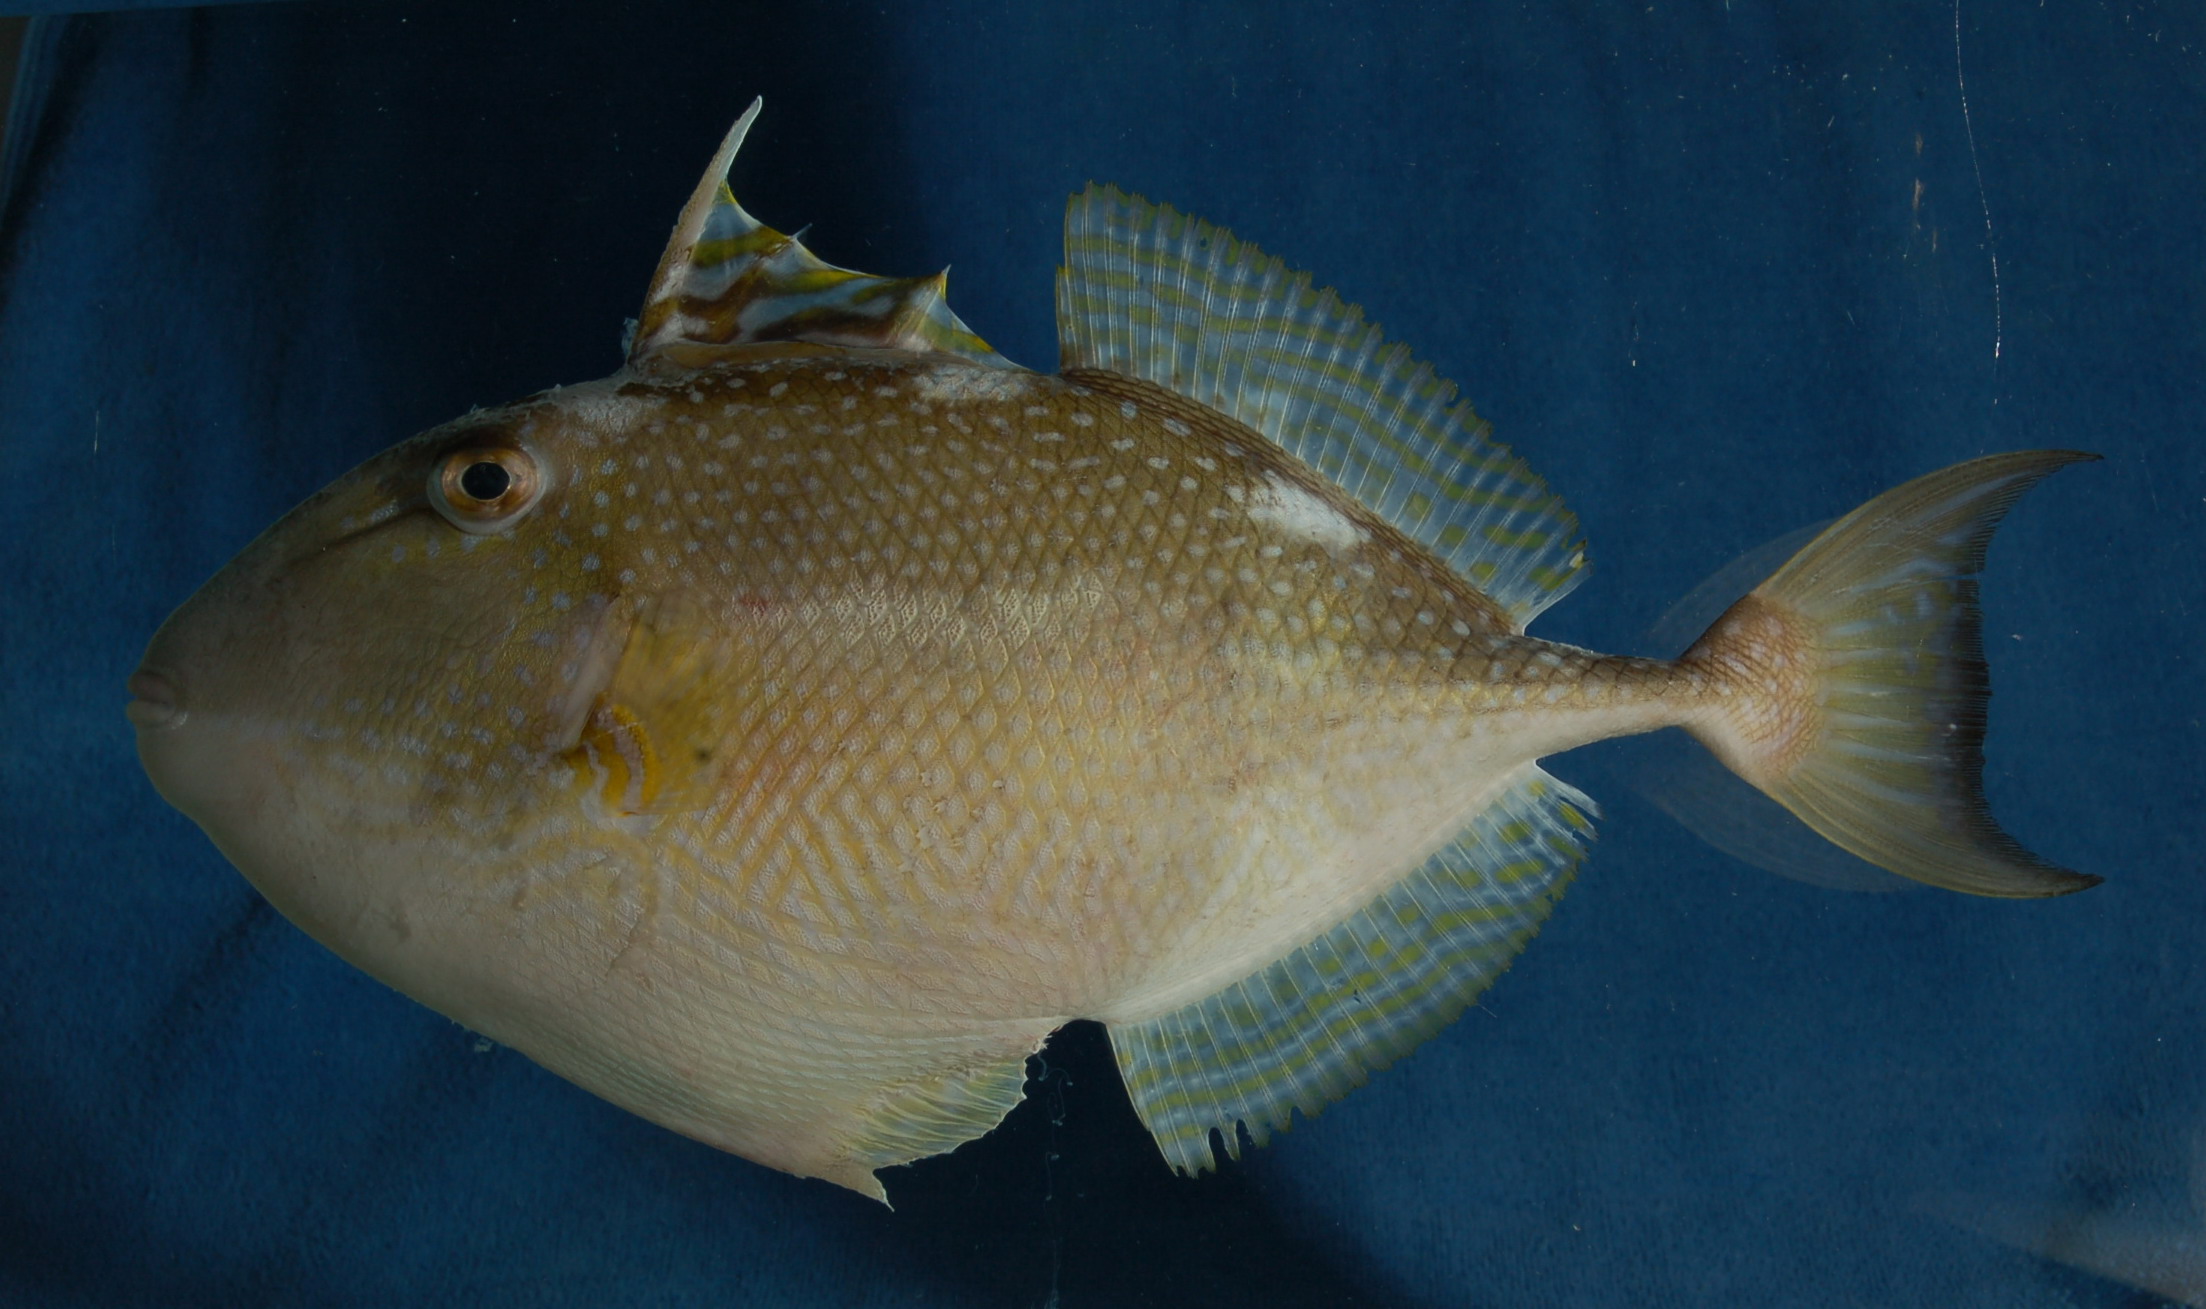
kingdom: Animalia
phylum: Chordata
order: Tetraodontiformes
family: Balistidae
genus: Abalistes
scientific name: Abalistes stellaris
